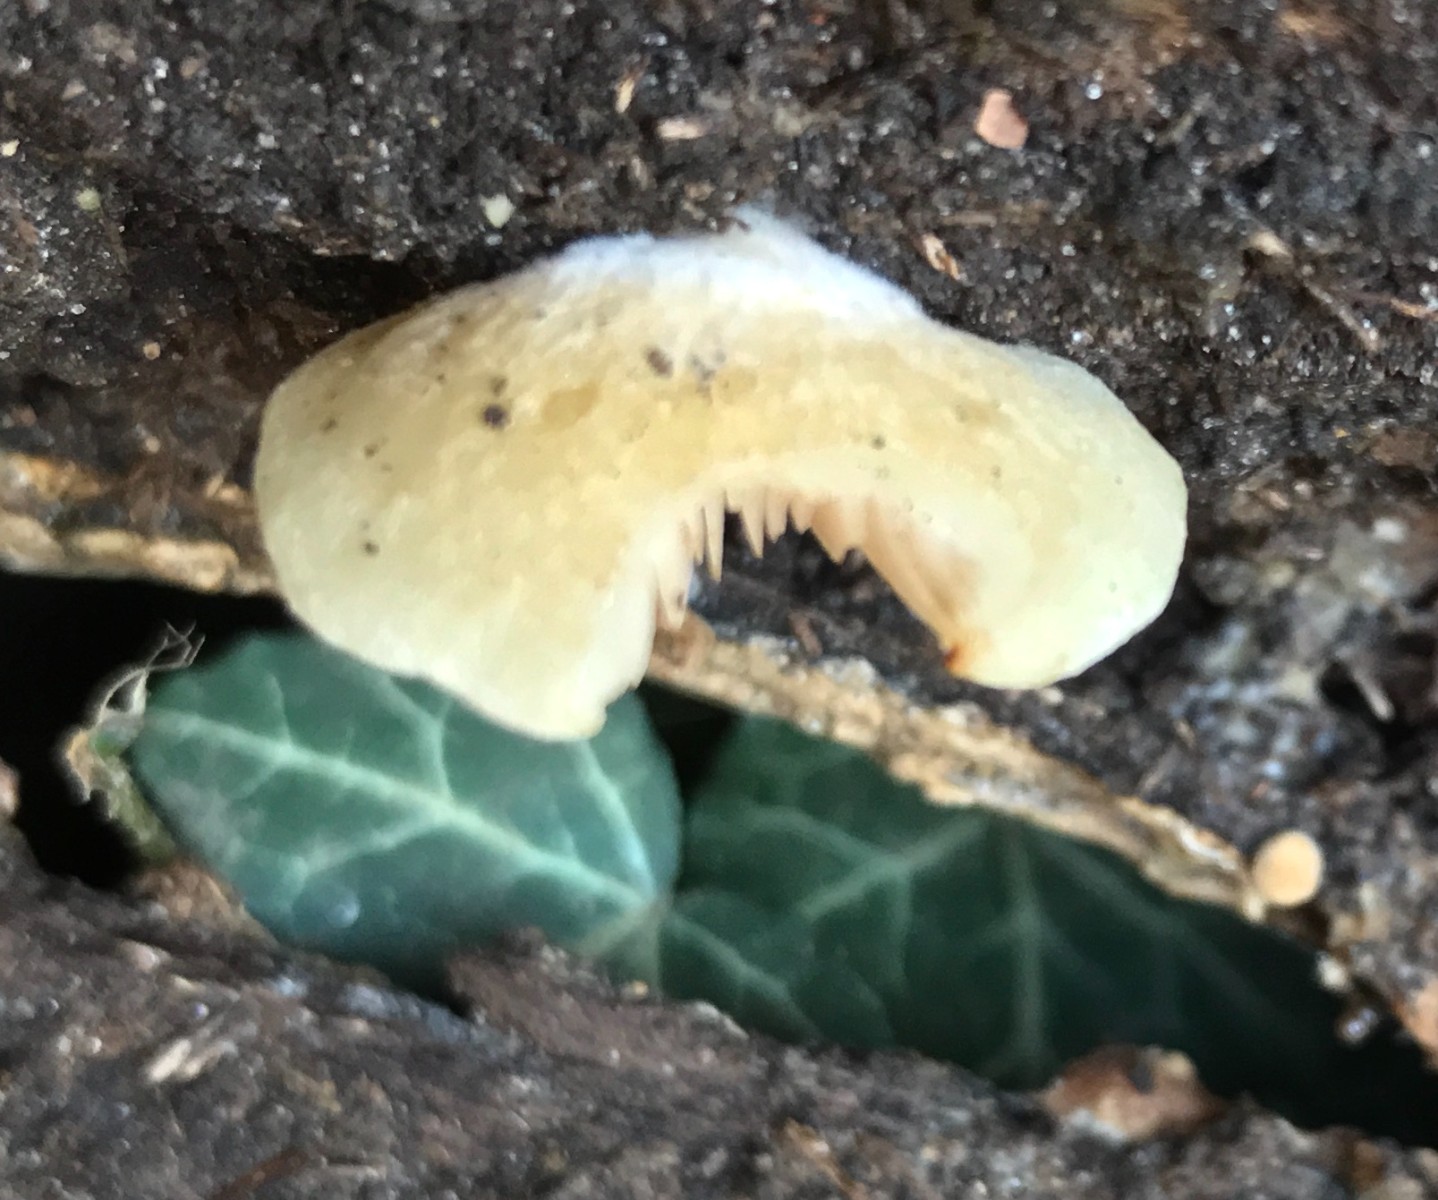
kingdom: Fungi
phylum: Basidiomycota
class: Agaricomycetes
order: Agaricales
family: Crepidotaceae
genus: Crepidotus
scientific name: Crepidotus mollis
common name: blød muslingesvamp
